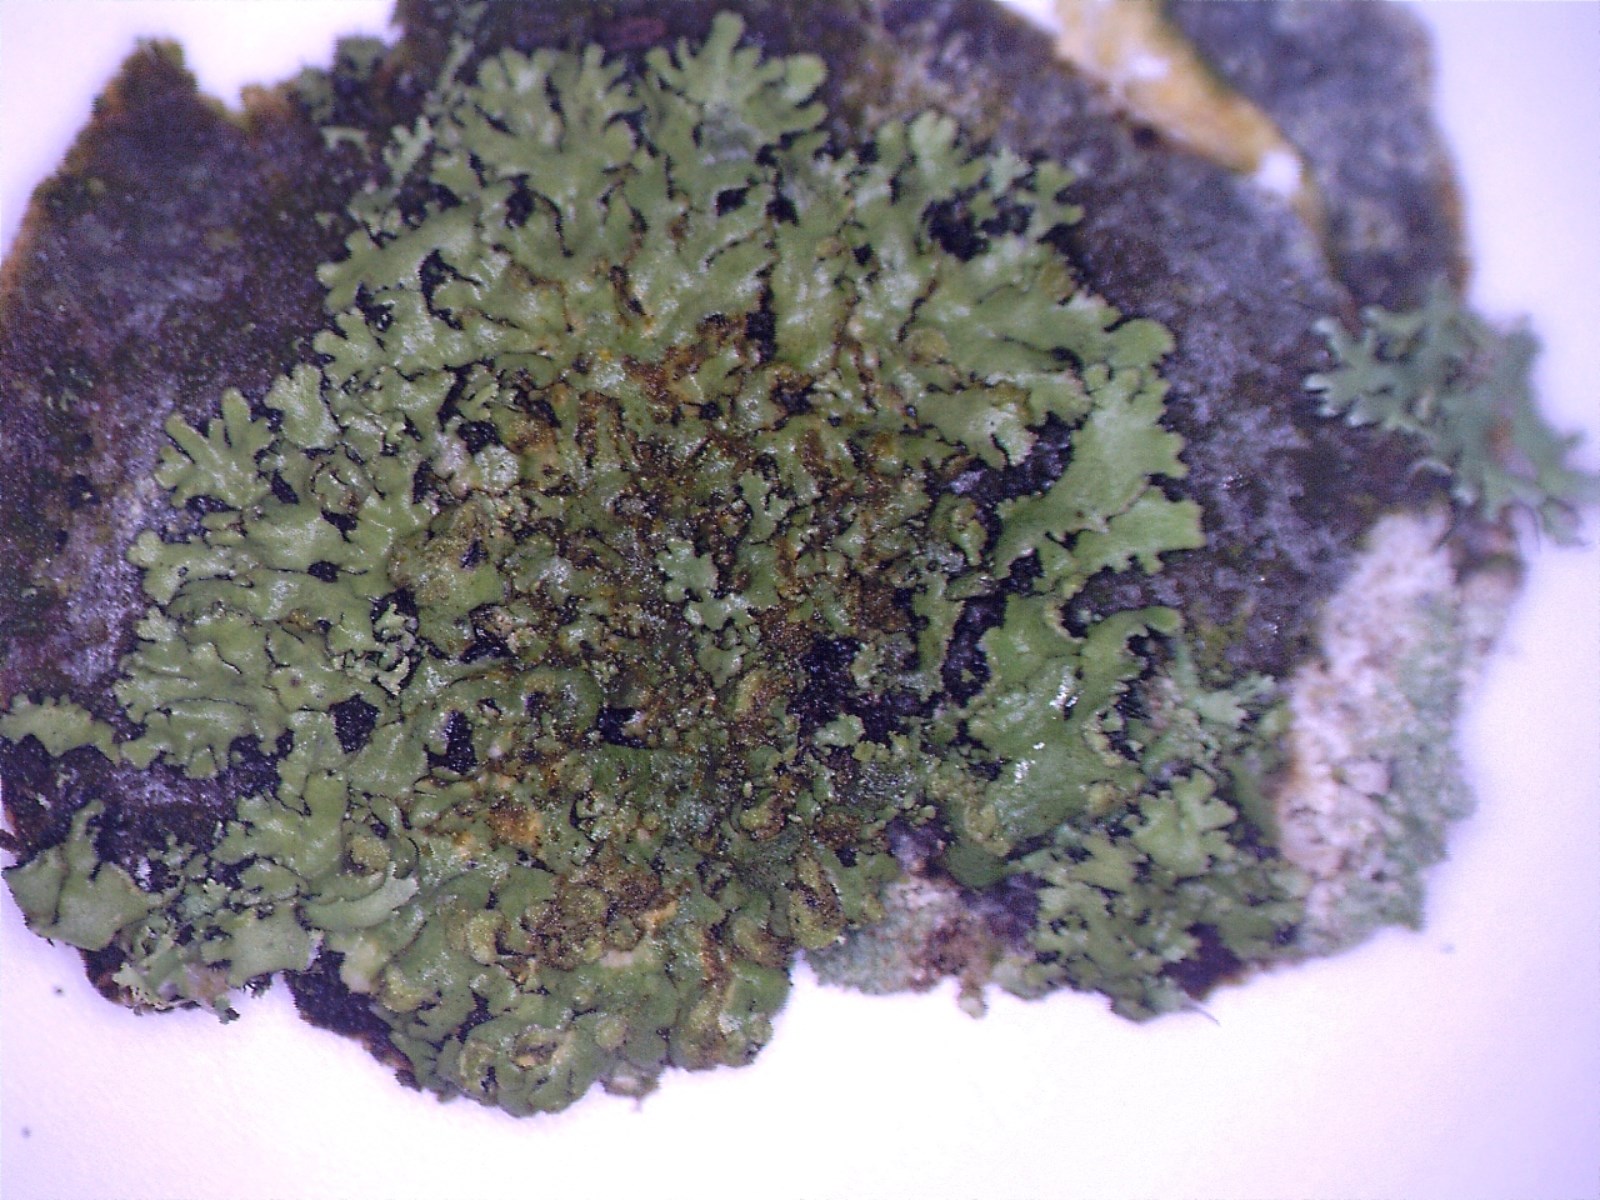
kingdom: Fungi
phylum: Ascomycota
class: Lecanoromycetes
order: Caliciales
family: Physciaceae
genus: Phaeophyscia
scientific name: Phaeophyscia orbicularis
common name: grågrøn rosetlav
